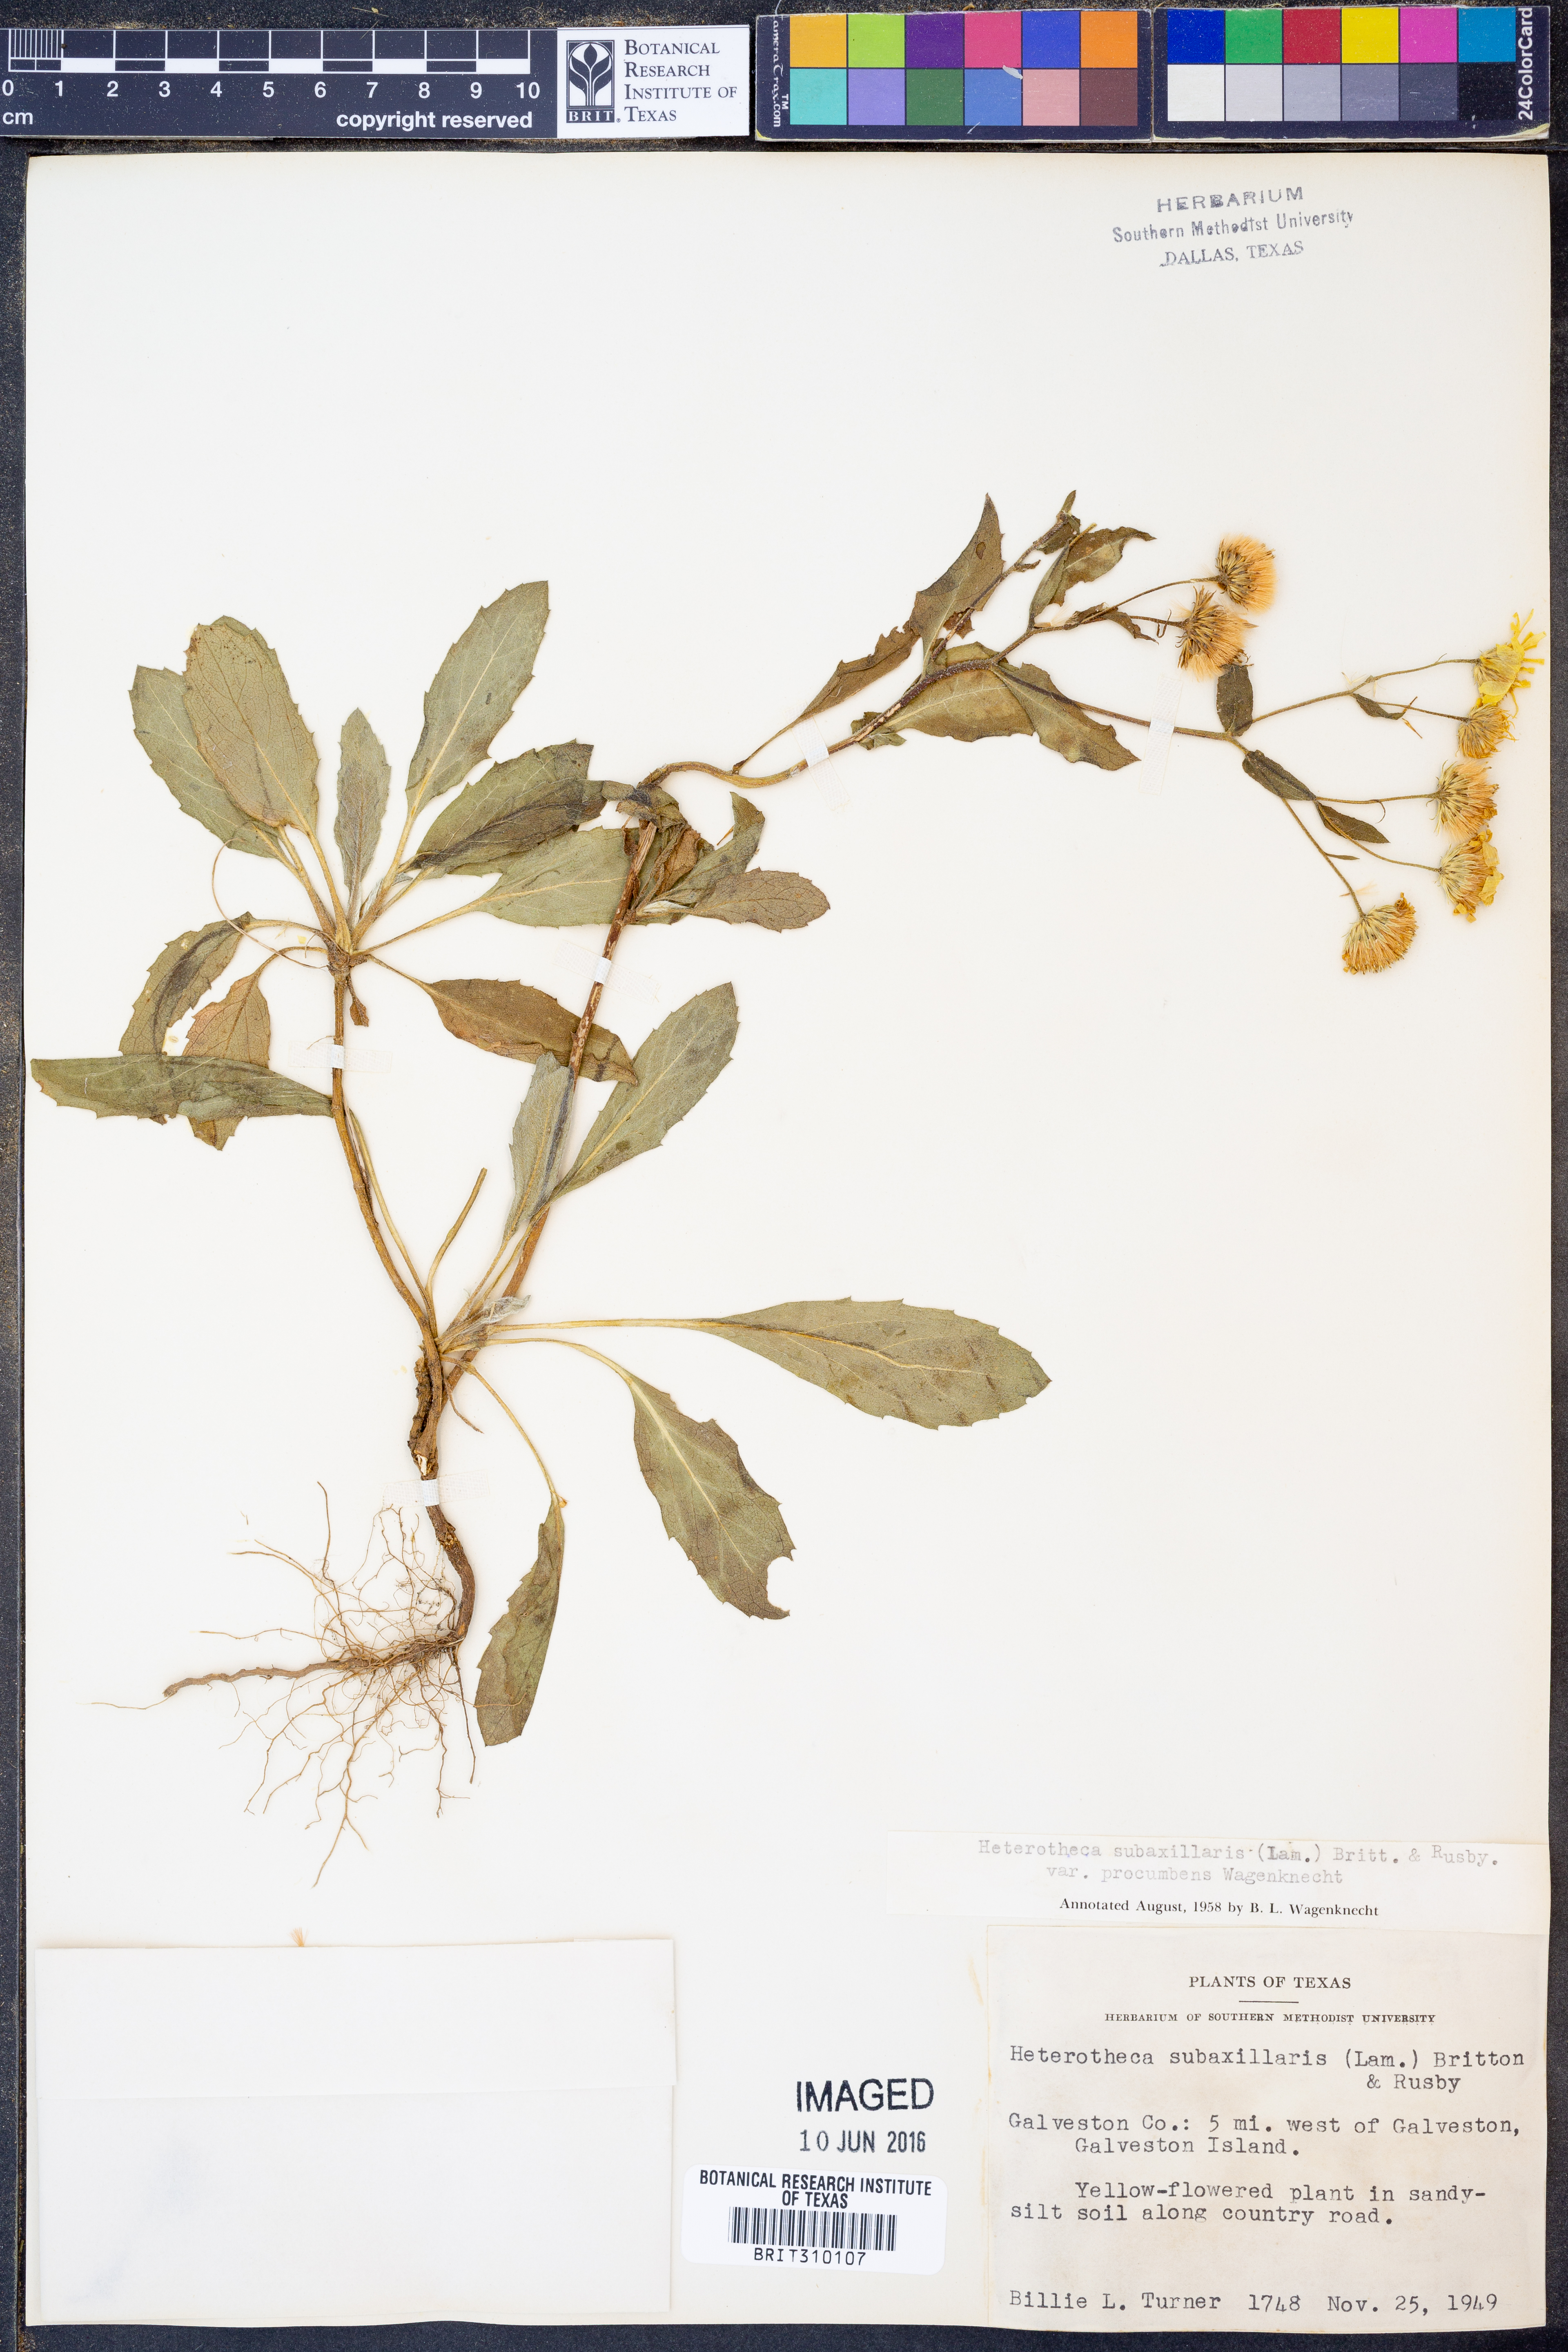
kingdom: Plantae
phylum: Tracheophyta
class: Magnoliopsida
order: Asterales
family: Asteraceae
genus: Heterotheca
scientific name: Heterotheca subaxillaris
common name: Camphorweed
